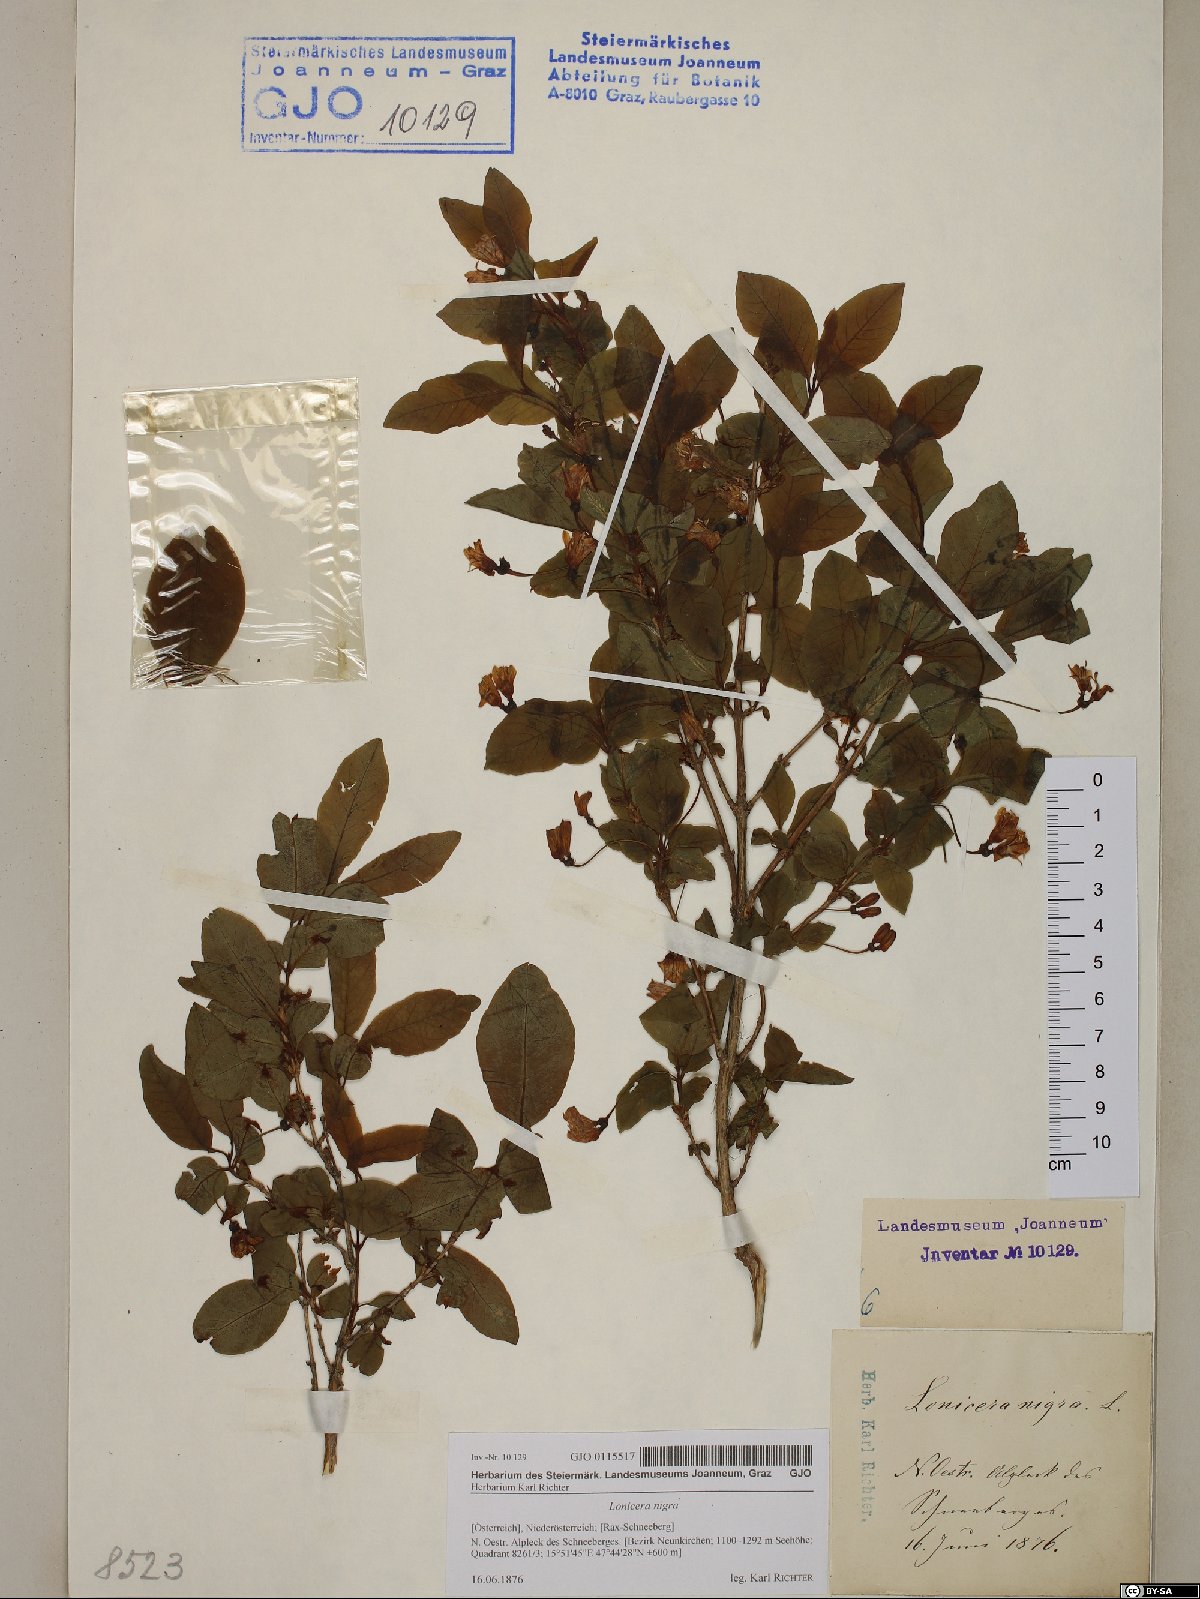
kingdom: Plantae
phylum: Tracheophyta
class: Magnoliopsida
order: Dipsacales
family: Caprifoliaceae
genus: Lonicera
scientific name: Lonicera nigra
